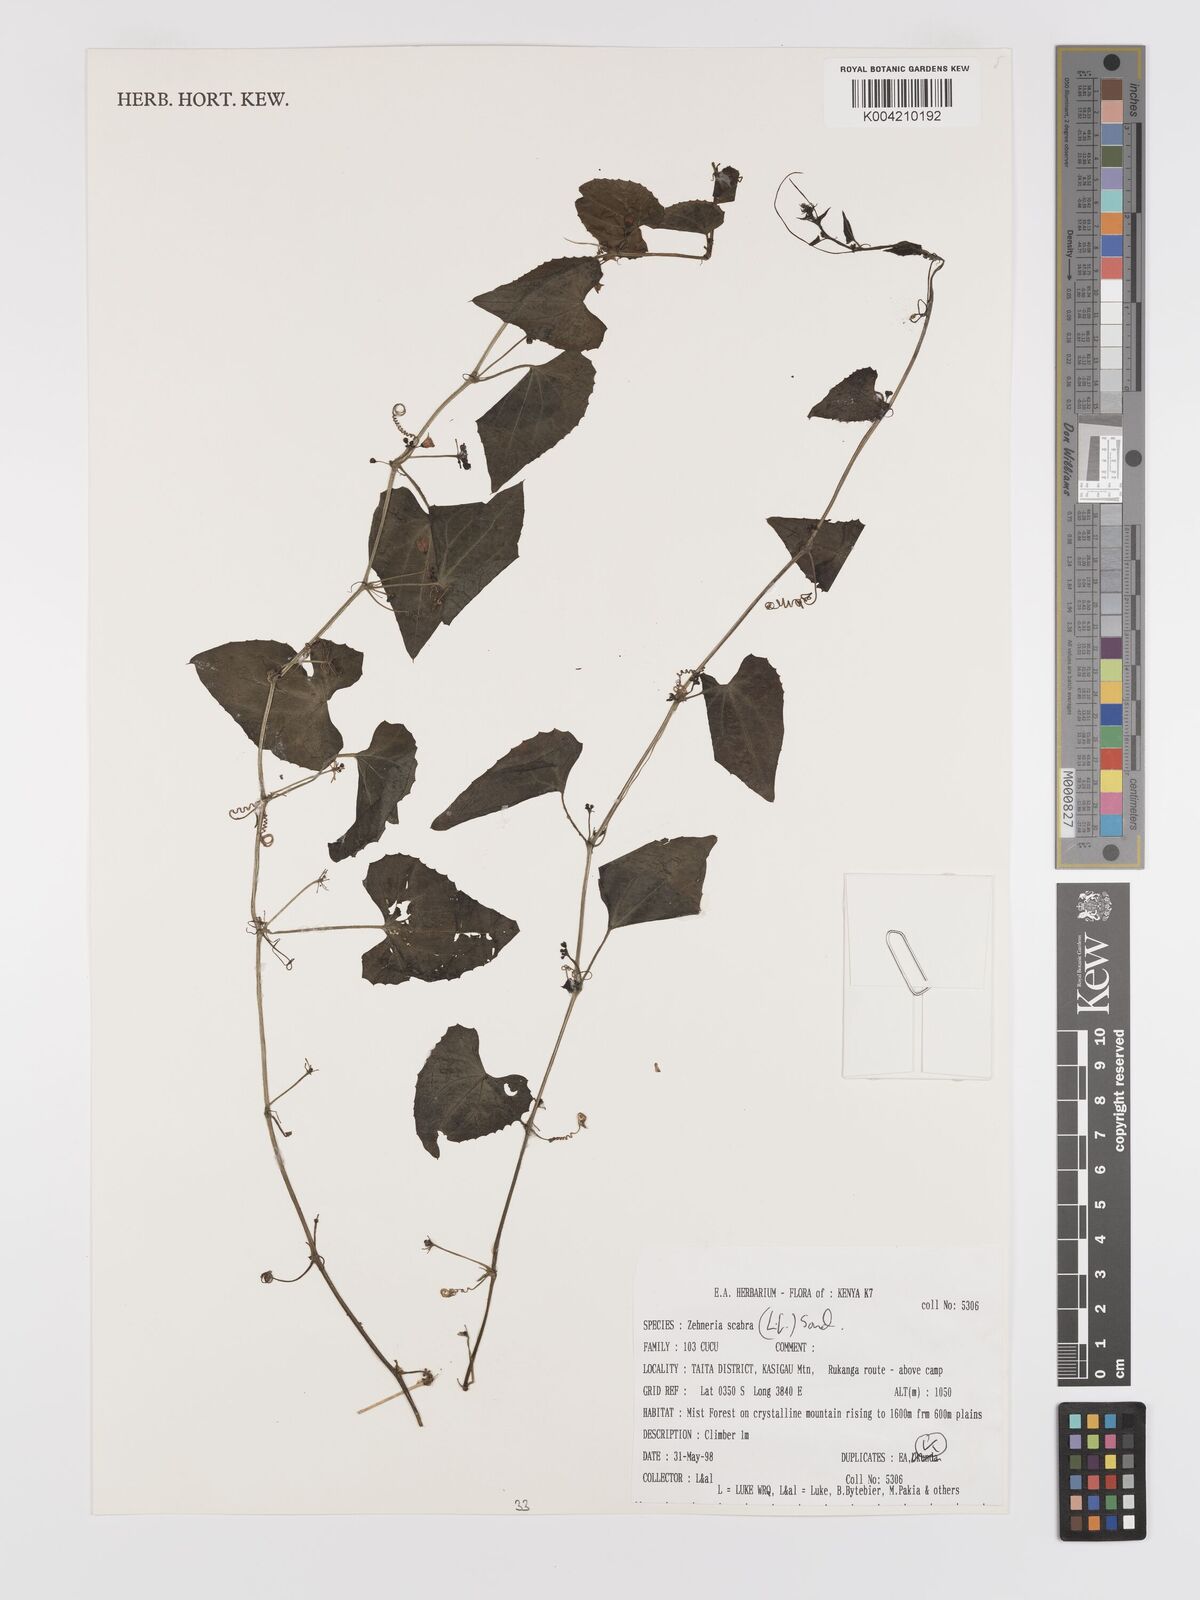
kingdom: Plantae
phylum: Tracheophyta
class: Magnoliopsida
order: Cucurbitales
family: Cucurbitaceae
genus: Zehneria
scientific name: Zehneria scabra
